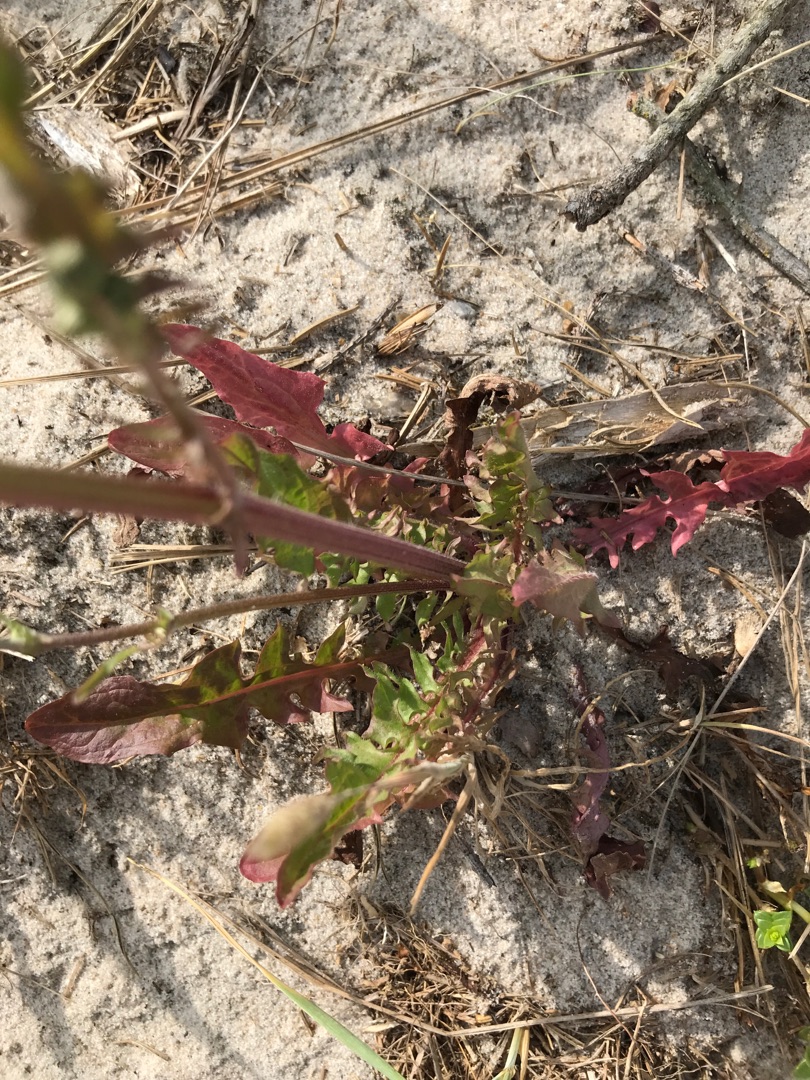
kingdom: Plantae
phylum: Tracheophyta
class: Magnoliopsida
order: Asterales
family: Asteraceae
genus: Crepis
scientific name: Crepis capillaris
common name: Grøn høgeskæg
